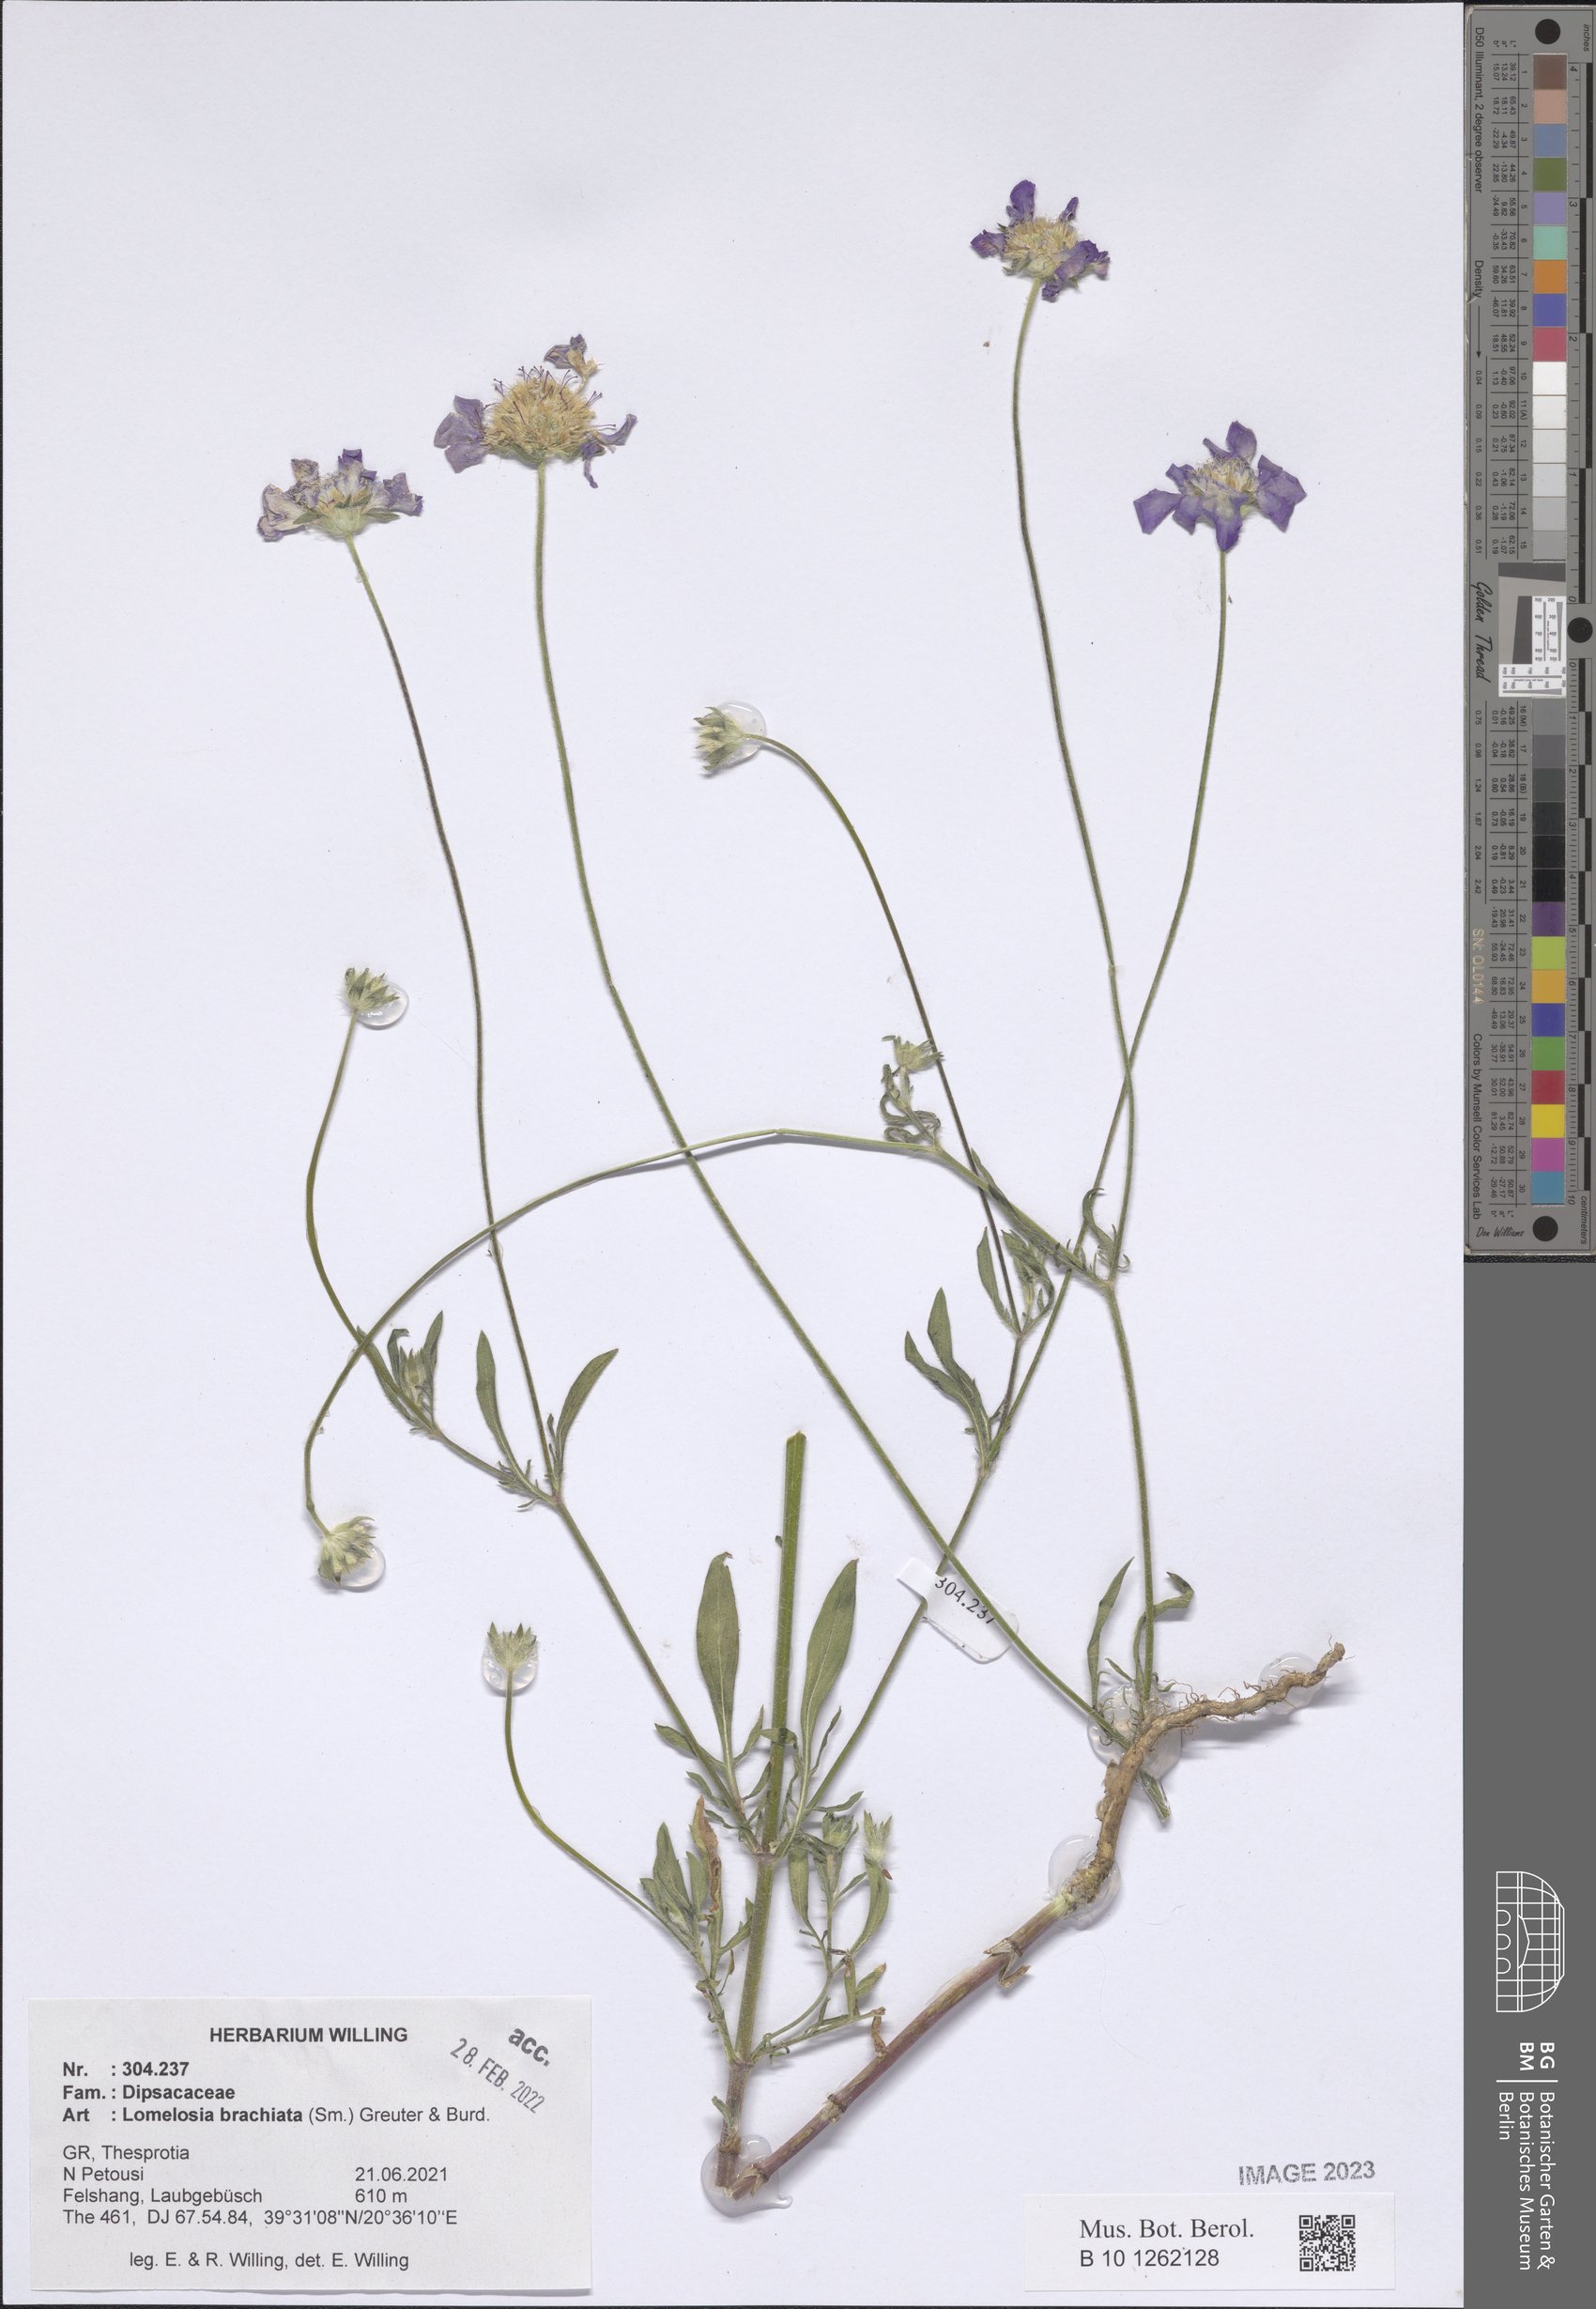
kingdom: Plantae
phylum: Tracheophyta
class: Magnoliopsida
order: Dipsacales
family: Caprifoliaceae
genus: Lomelosia
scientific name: Lomelosia brachiata
